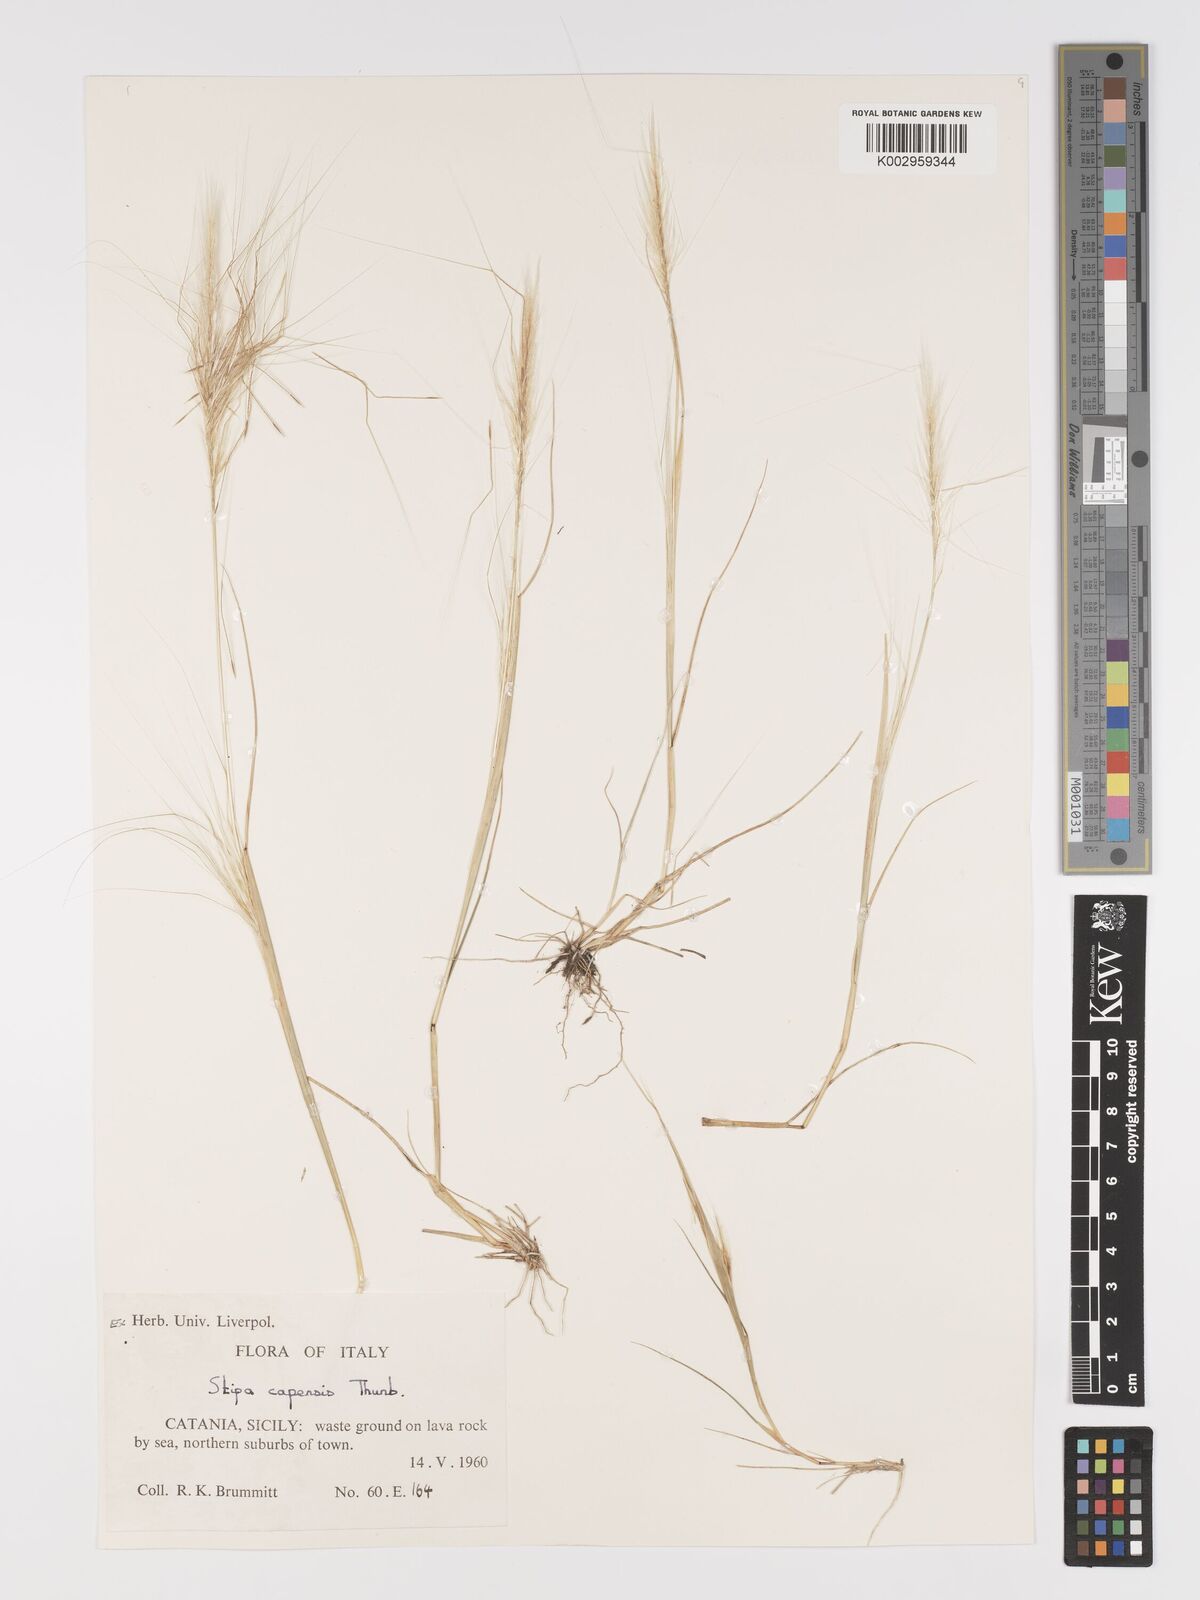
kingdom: Plantae
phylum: Tracheophyta
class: Liliopsida
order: Poales
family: Poaceae
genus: Stipellula
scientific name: Stipellula capensis
